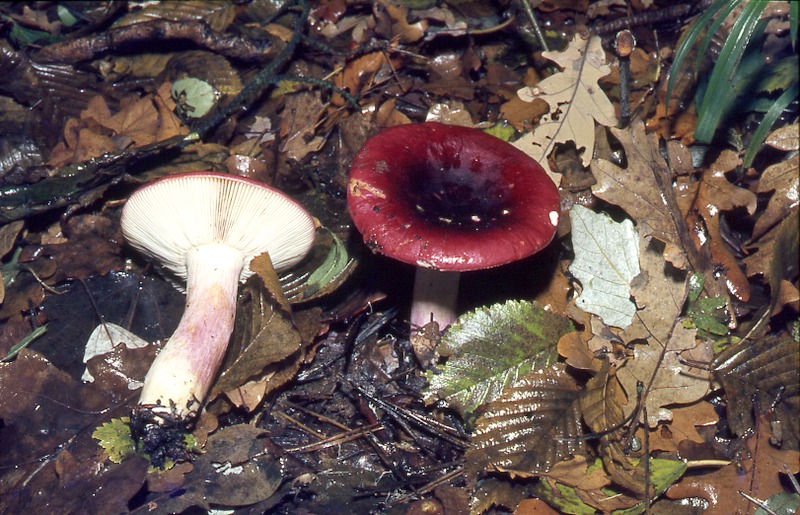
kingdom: Fungi
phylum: Basidiomycota
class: Agaricomycetes
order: Russulales
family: Russulaceae
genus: Russula
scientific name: Russula xerampelina
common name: Crab brittlegill
